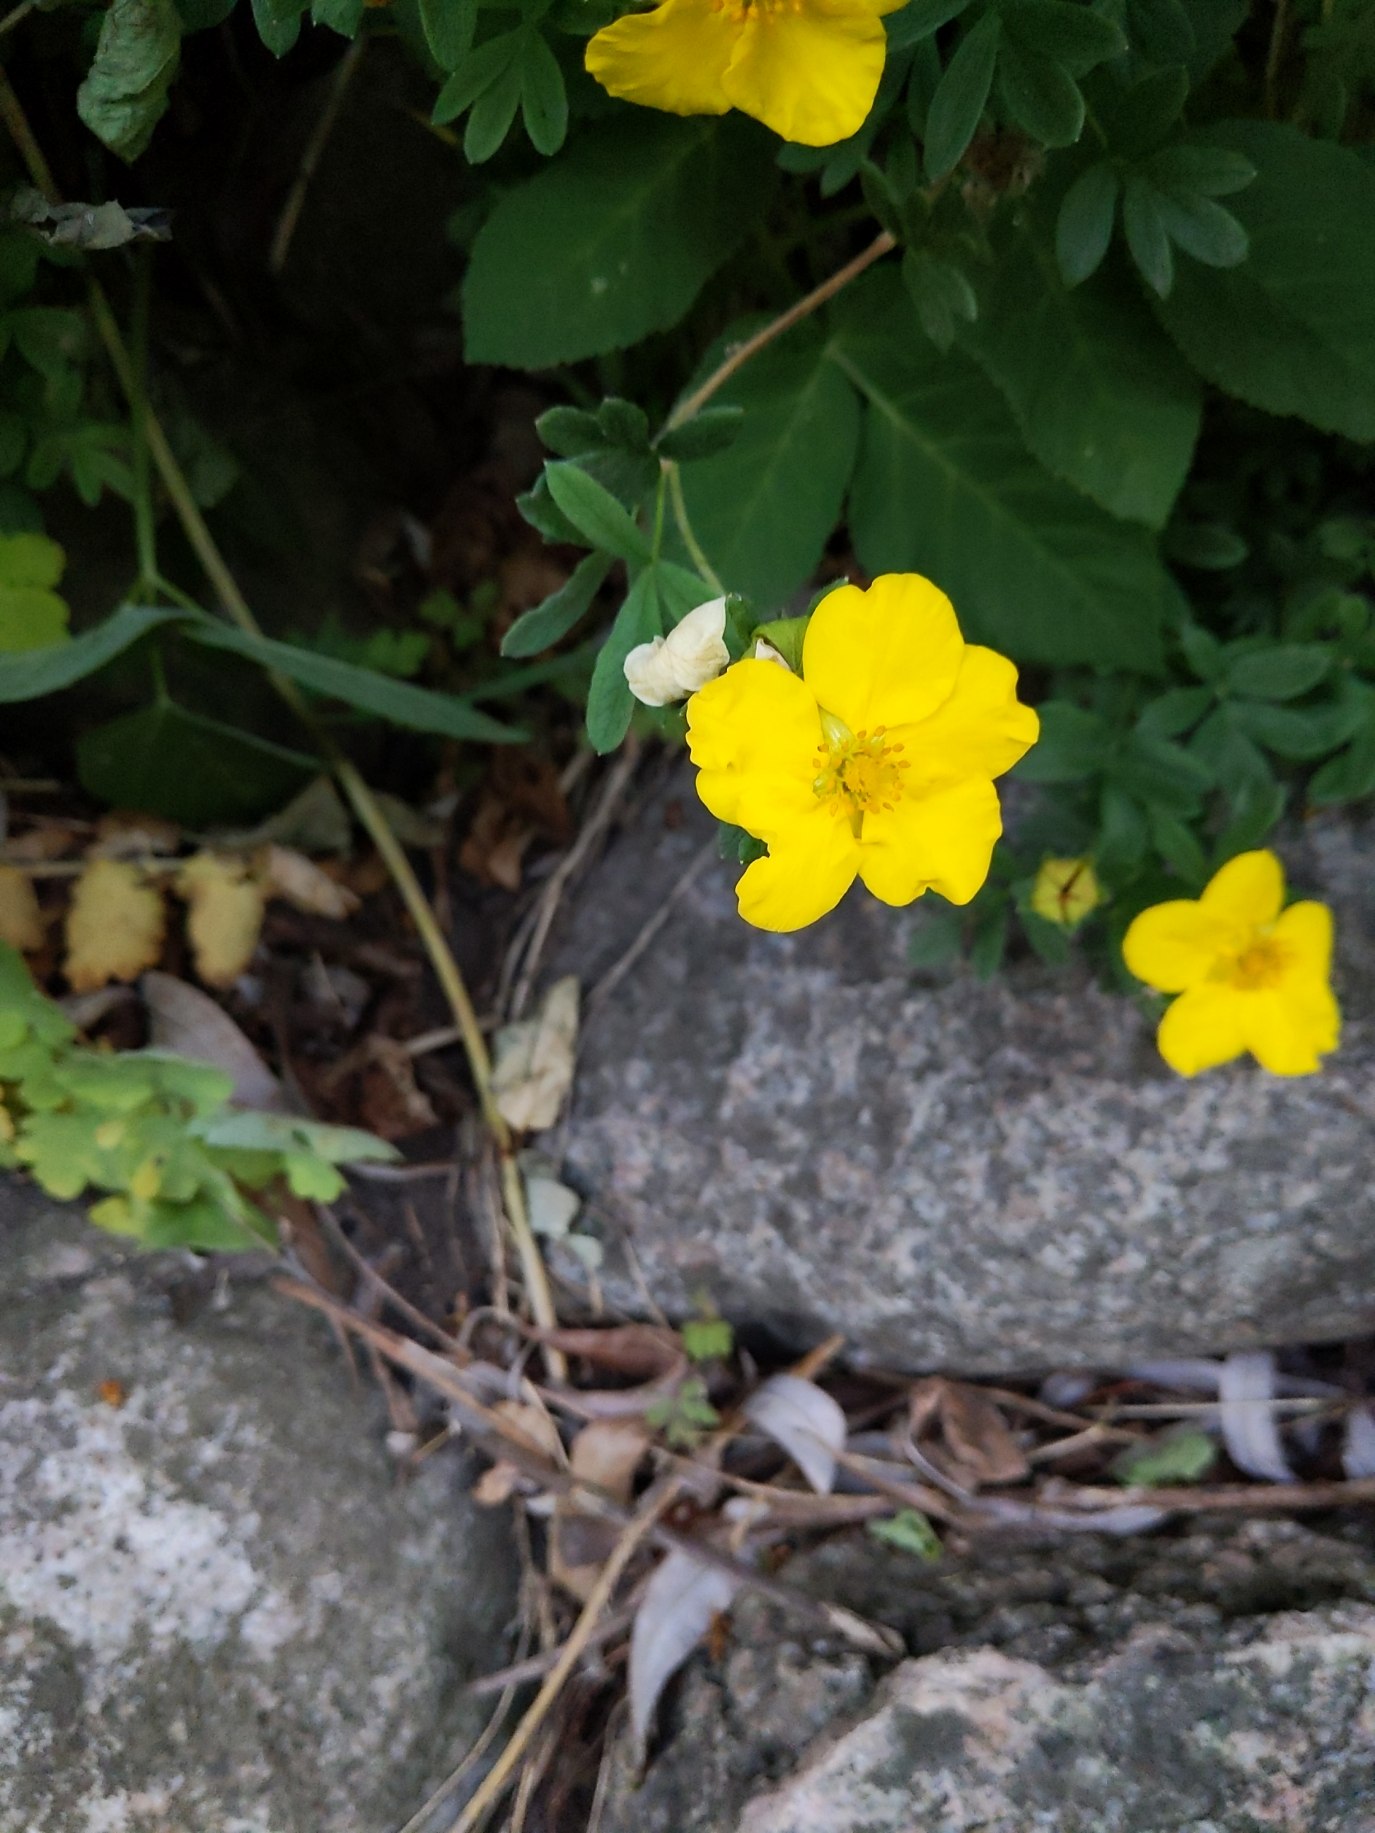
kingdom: Plantae
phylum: Tracheophyta
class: Magnoliopsida
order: Rosales
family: Rosaceae
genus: Dasiphora
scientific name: Dasiphora fruticosa
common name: Buskpotentil
